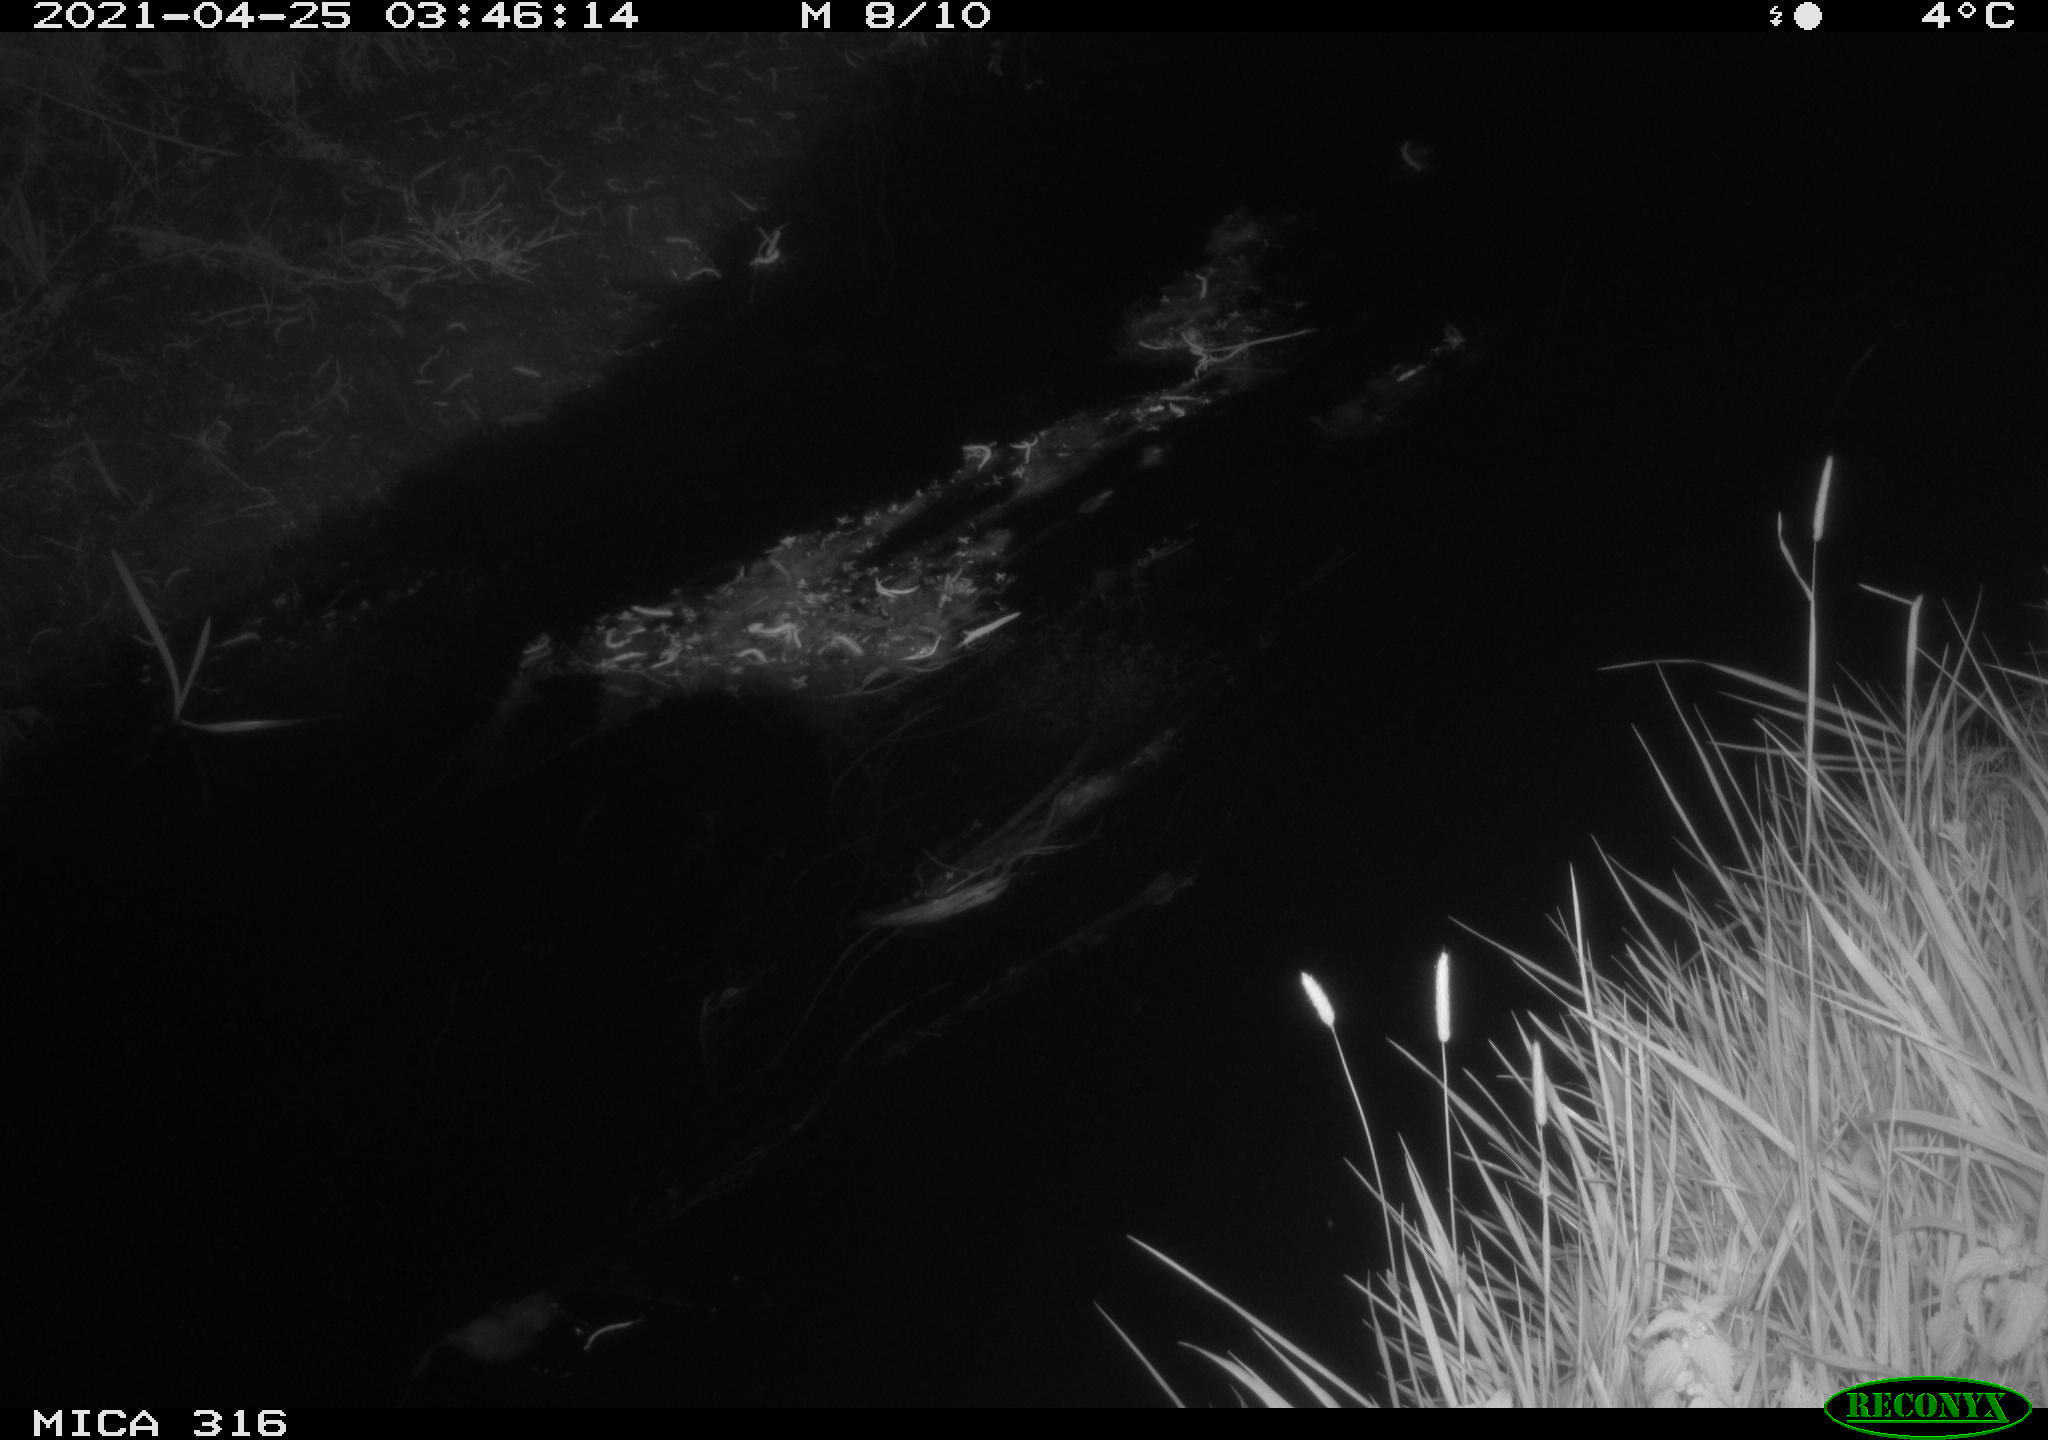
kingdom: Animalia
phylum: Chordata
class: Aves
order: Anseriformes
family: Anatidae
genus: Anas
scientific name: Anas platyrhynchos
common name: Mallard
